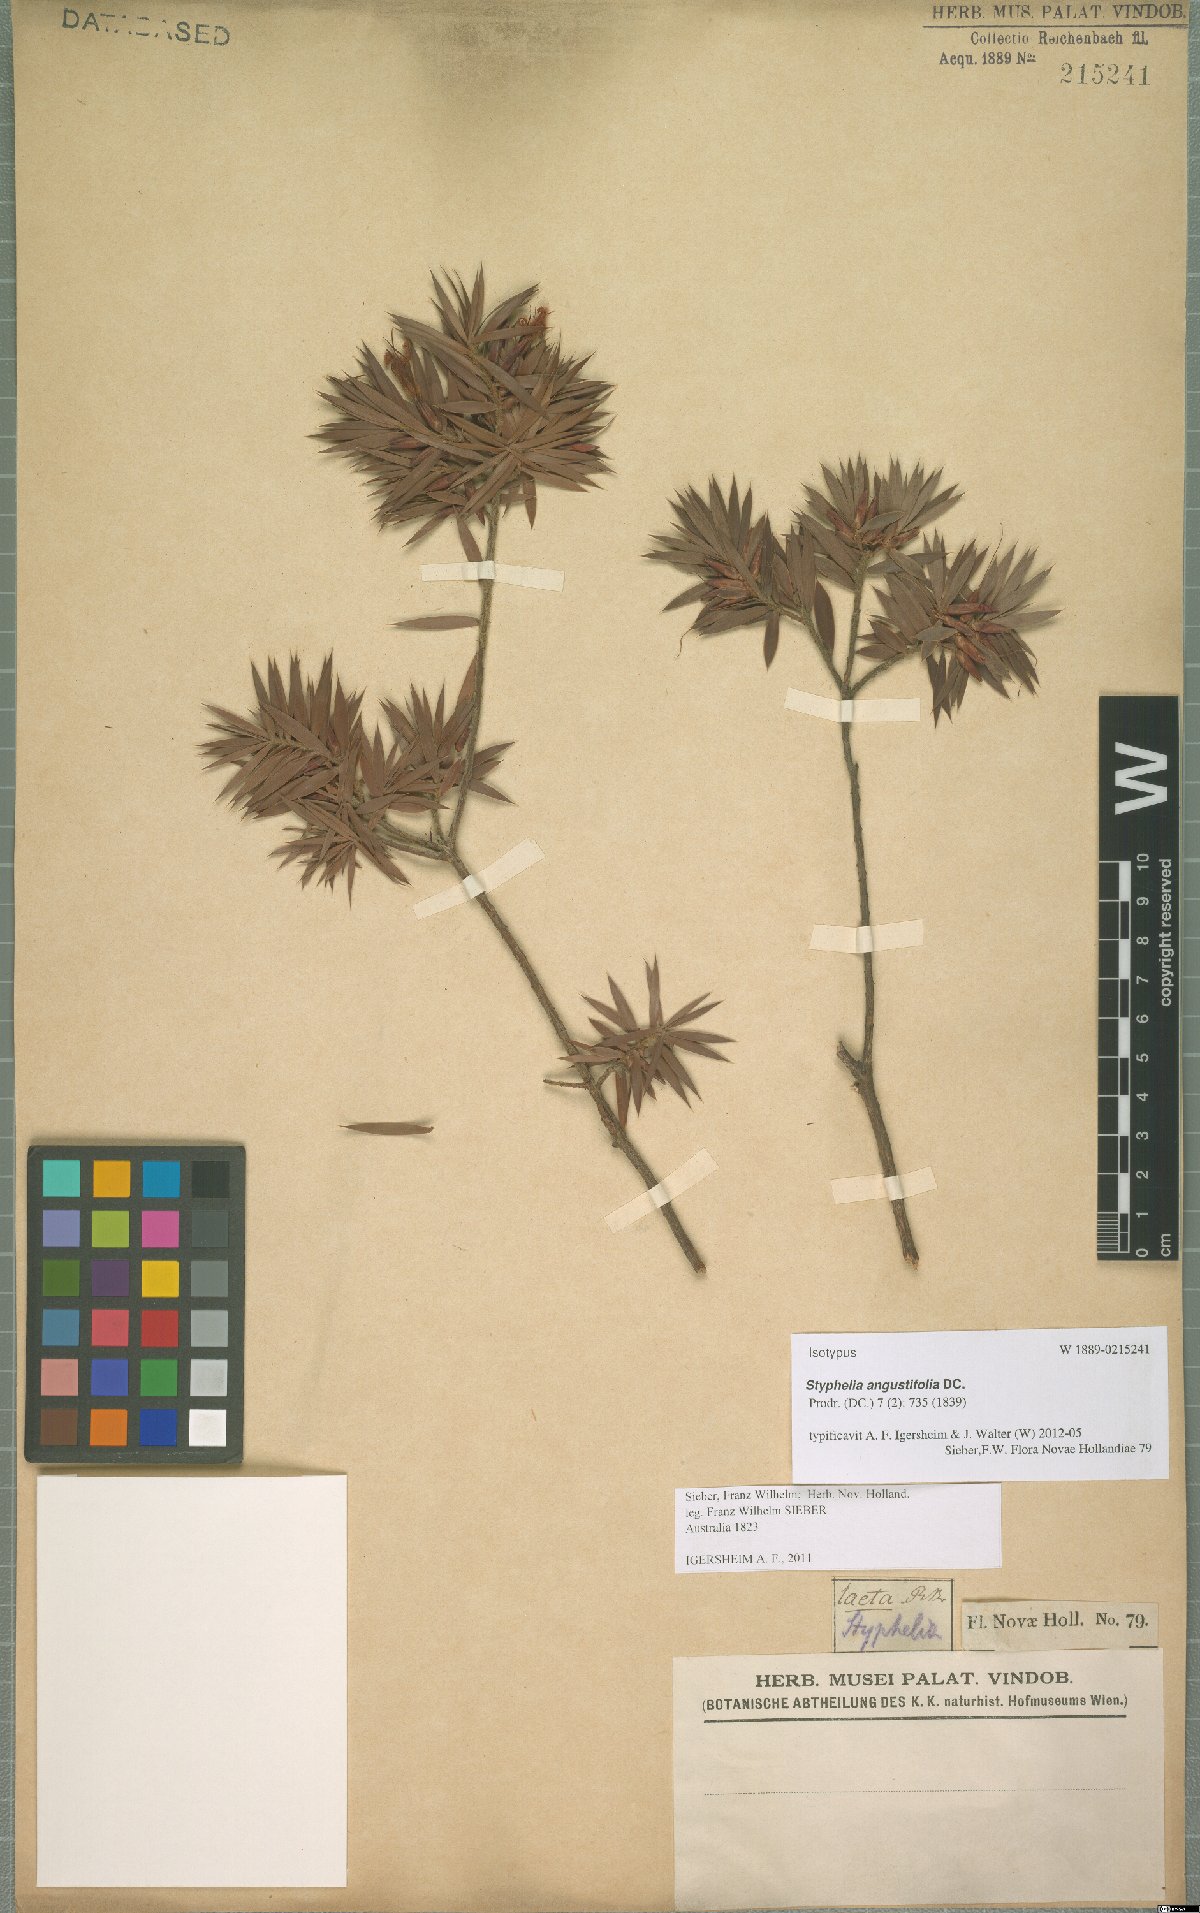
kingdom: Plantae
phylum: Tracheophyta
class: Magnoliopsida
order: Ericales
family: Ericaceae
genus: Styphelia
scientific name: Styphelia laeta
